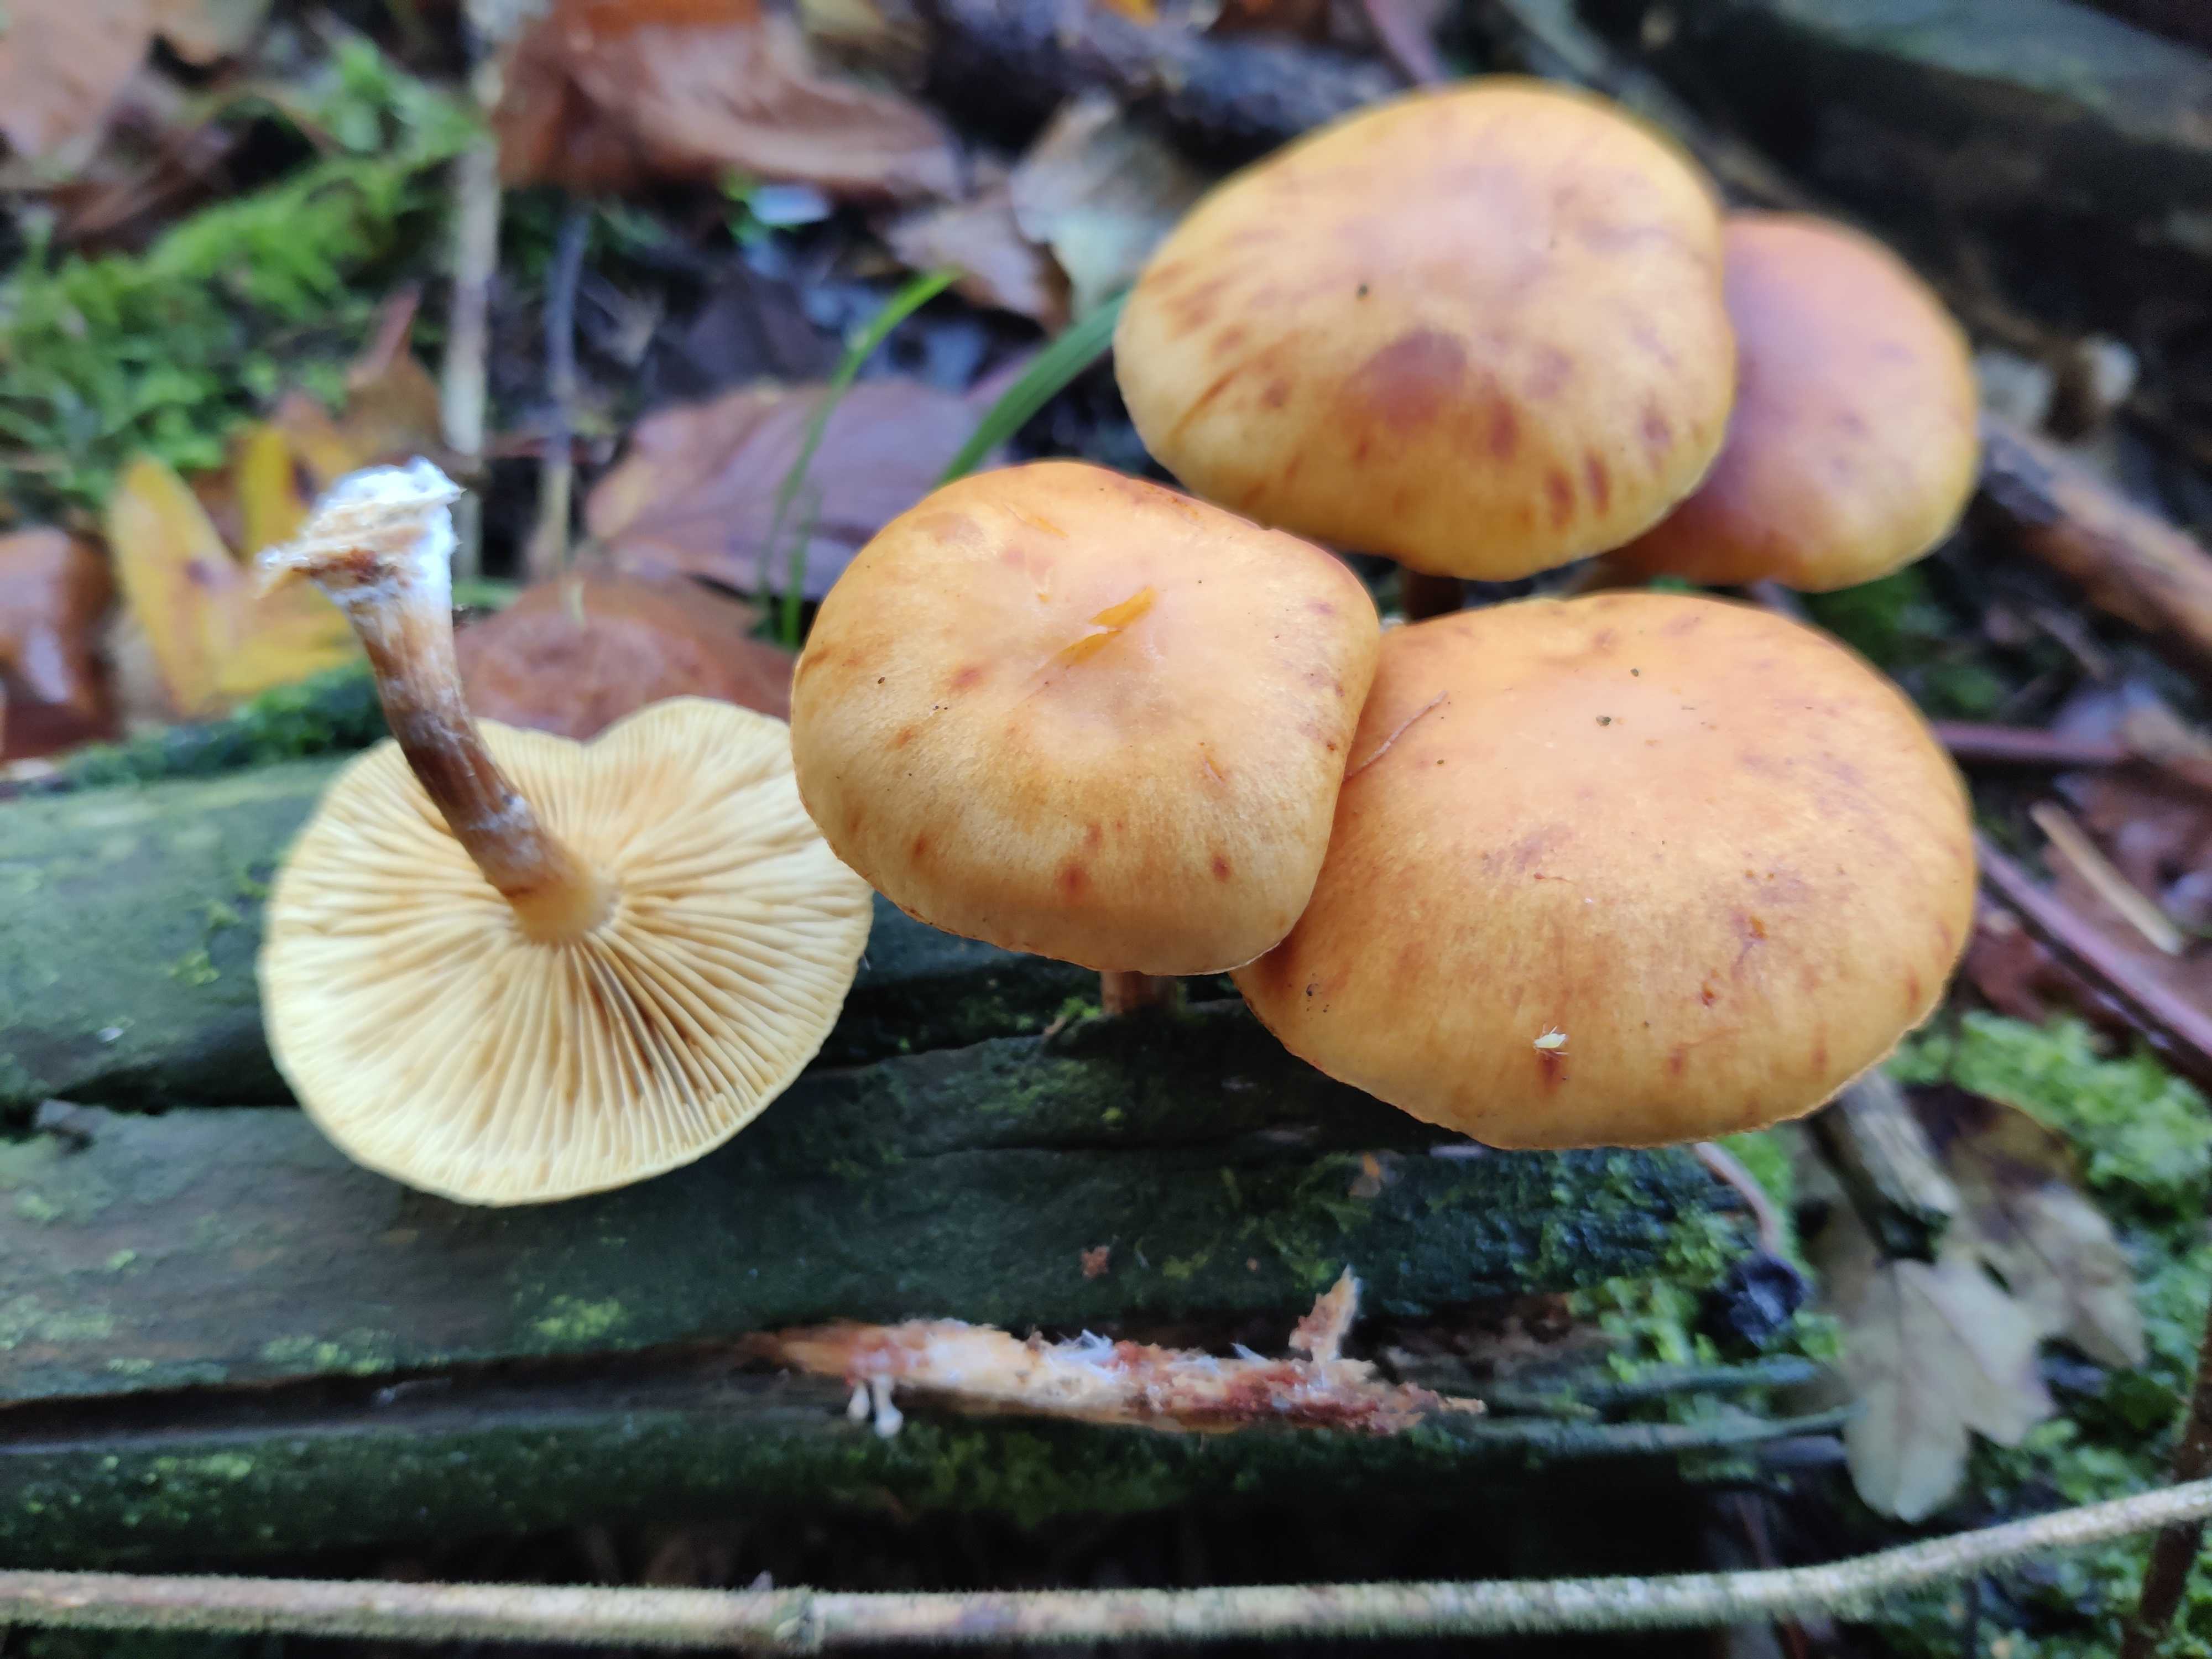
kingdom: Fungi
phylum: Basidiomycota
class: Agaricomycetes
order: Agaricales
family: Hymenogastraceae
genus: Gymnopilus
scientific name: Gymnopilus penetrans
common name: plettet flammehat
